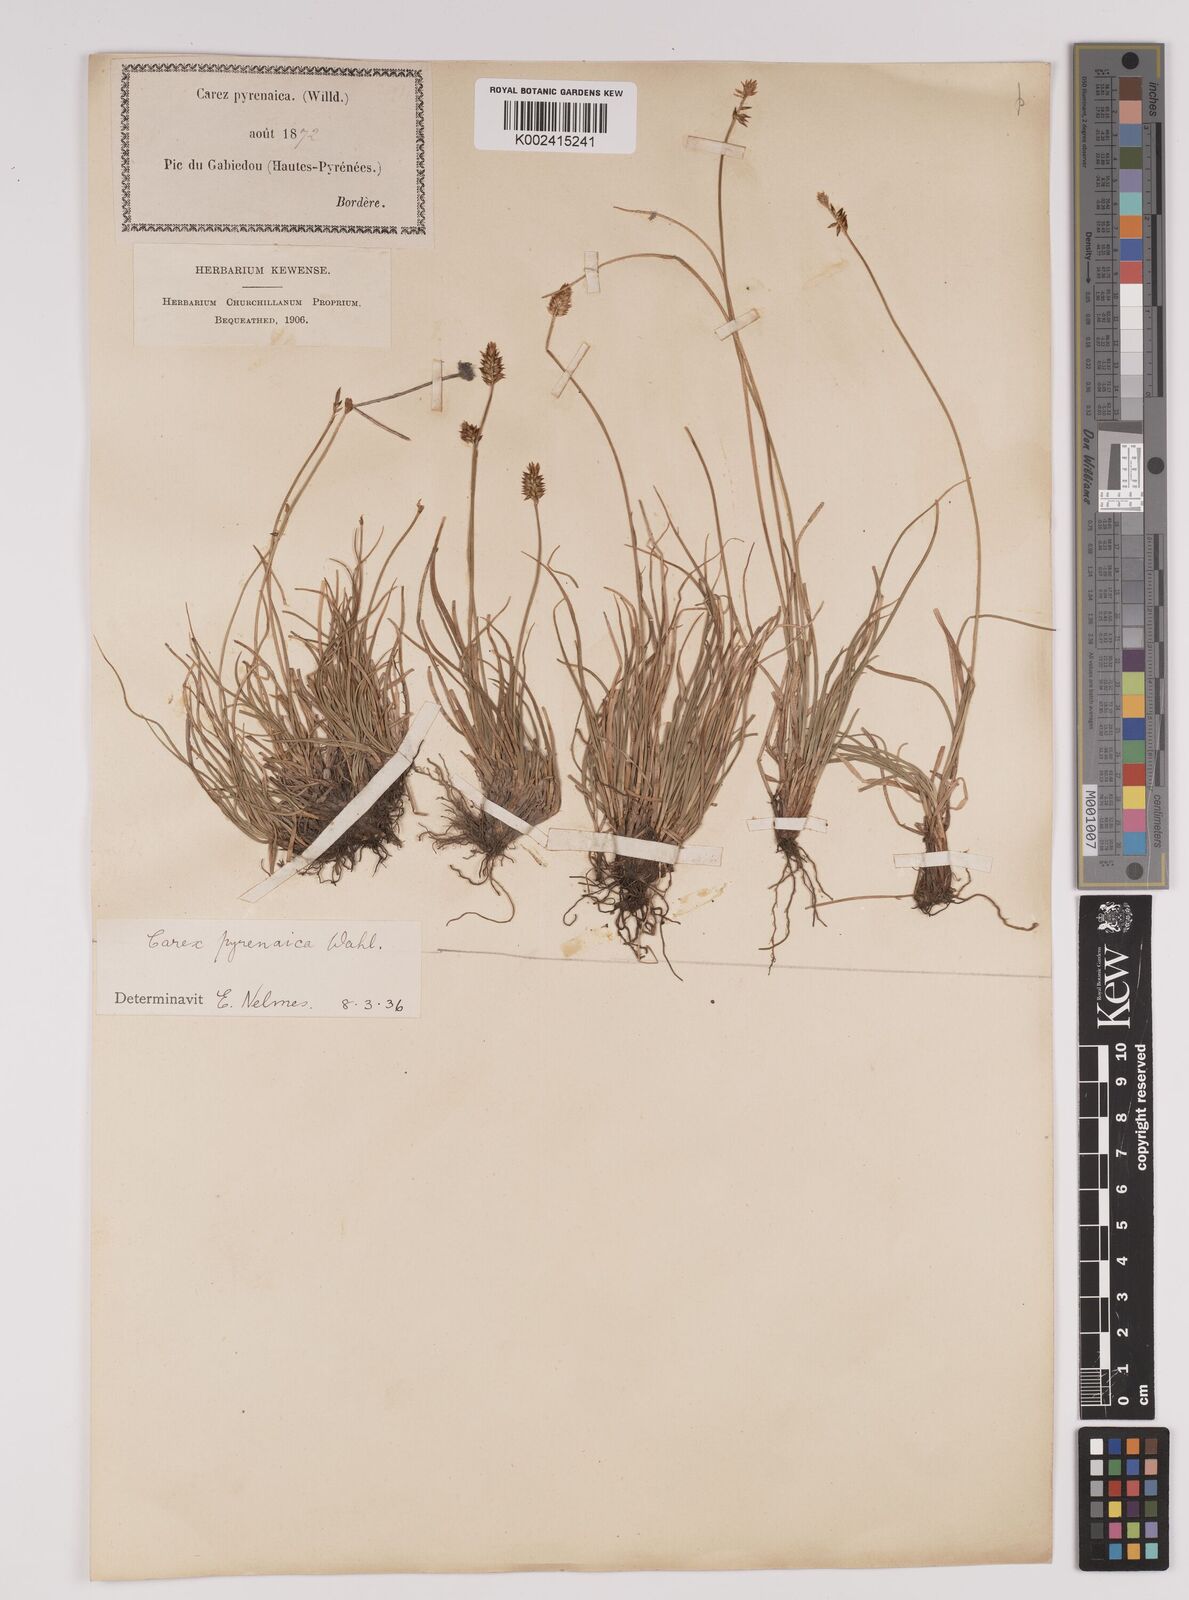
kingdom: Plantae
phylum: Tracheophyta
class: Liliopsida
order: Poales
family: Cyperaceae
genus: Carex
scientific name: Carex acicularis
